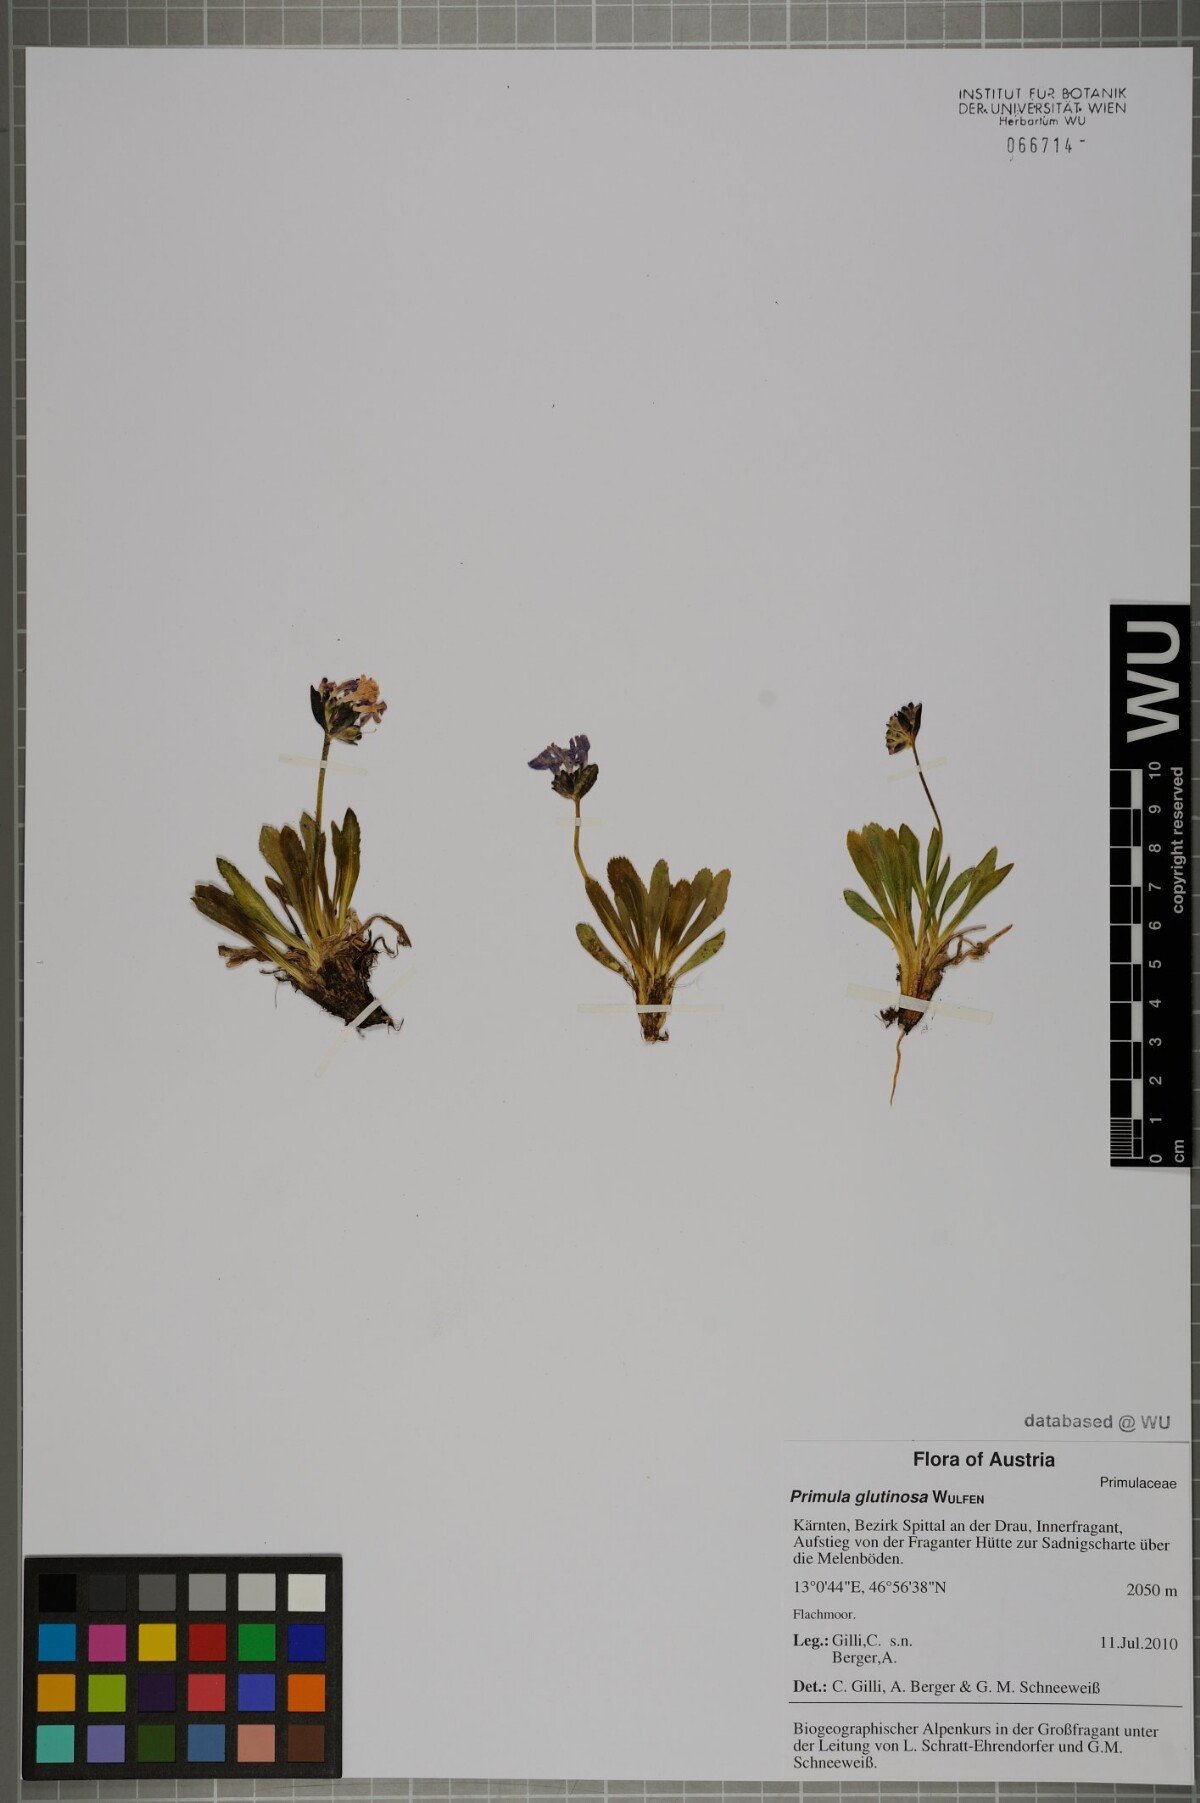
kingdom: Plantae
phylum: Tracheophyta
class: Magnoliopsida
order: Ericales
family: Primulaceae
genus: Primula
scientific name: Primula glutinosa
